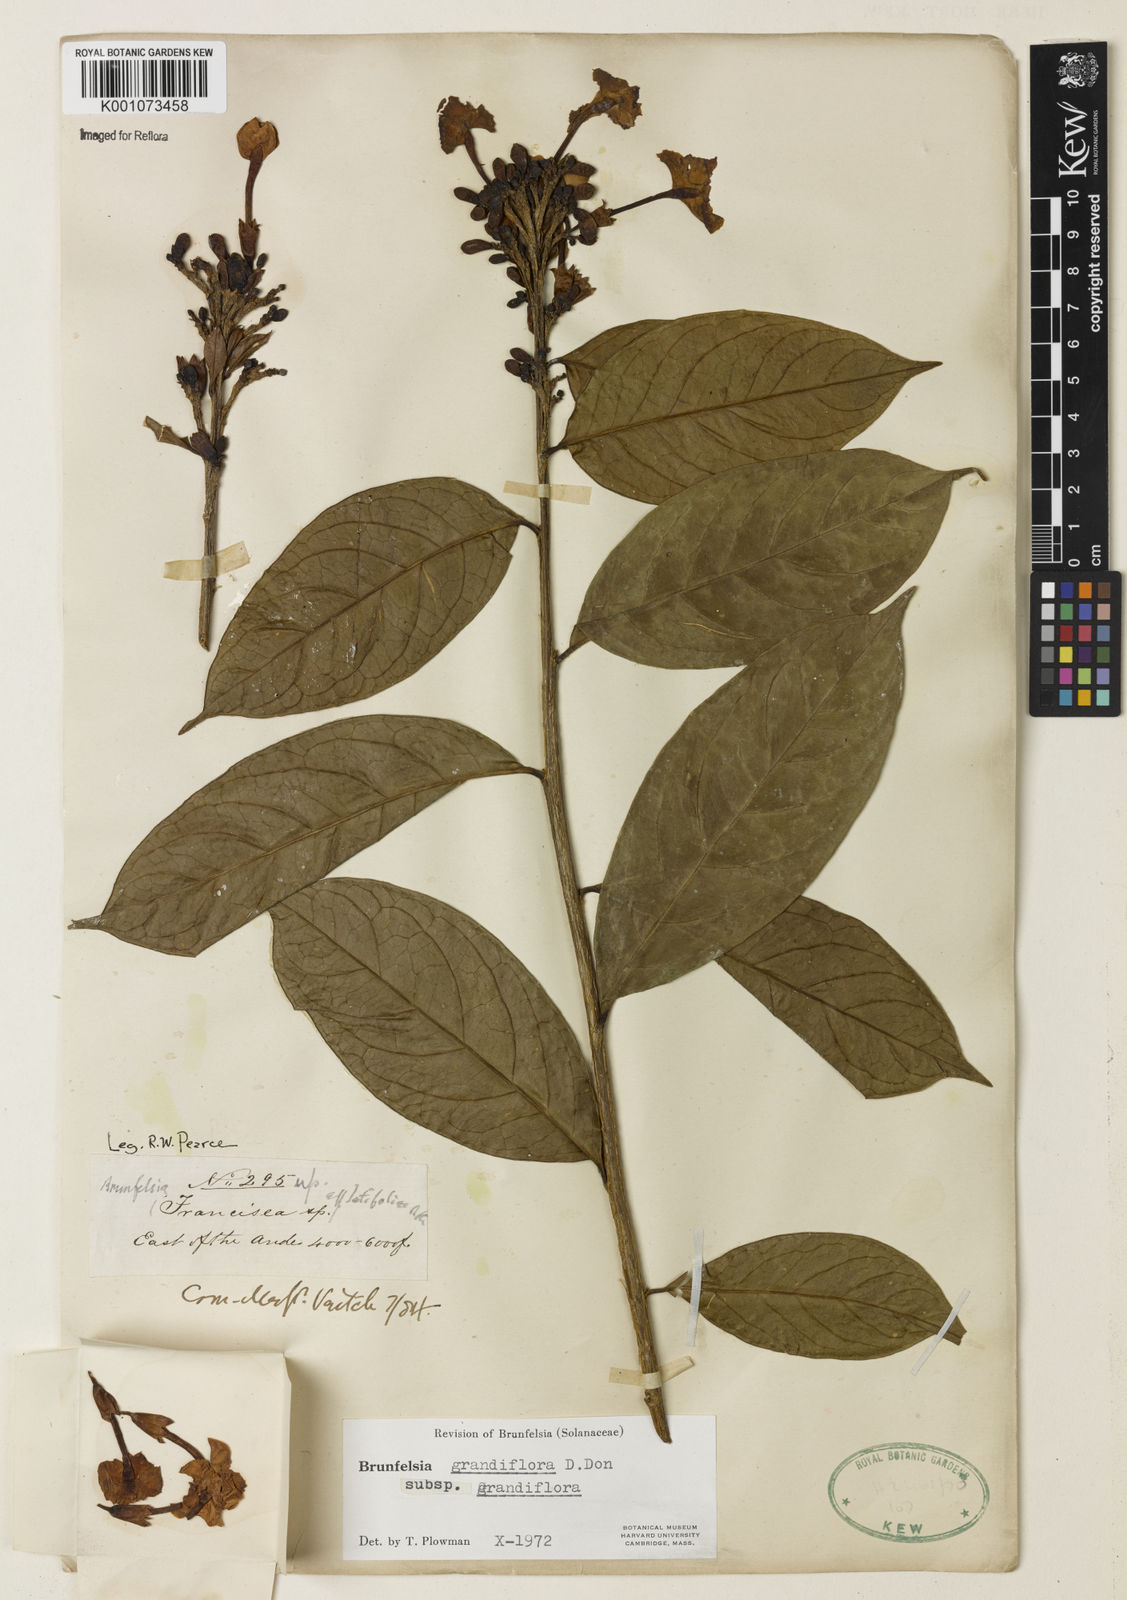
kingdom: Plantae
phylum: Tracheophyta
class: Magnoliopsida
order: Solanales
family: Solanaceae
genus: Brunfelsia
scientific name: Brunfelsia grandiflora
